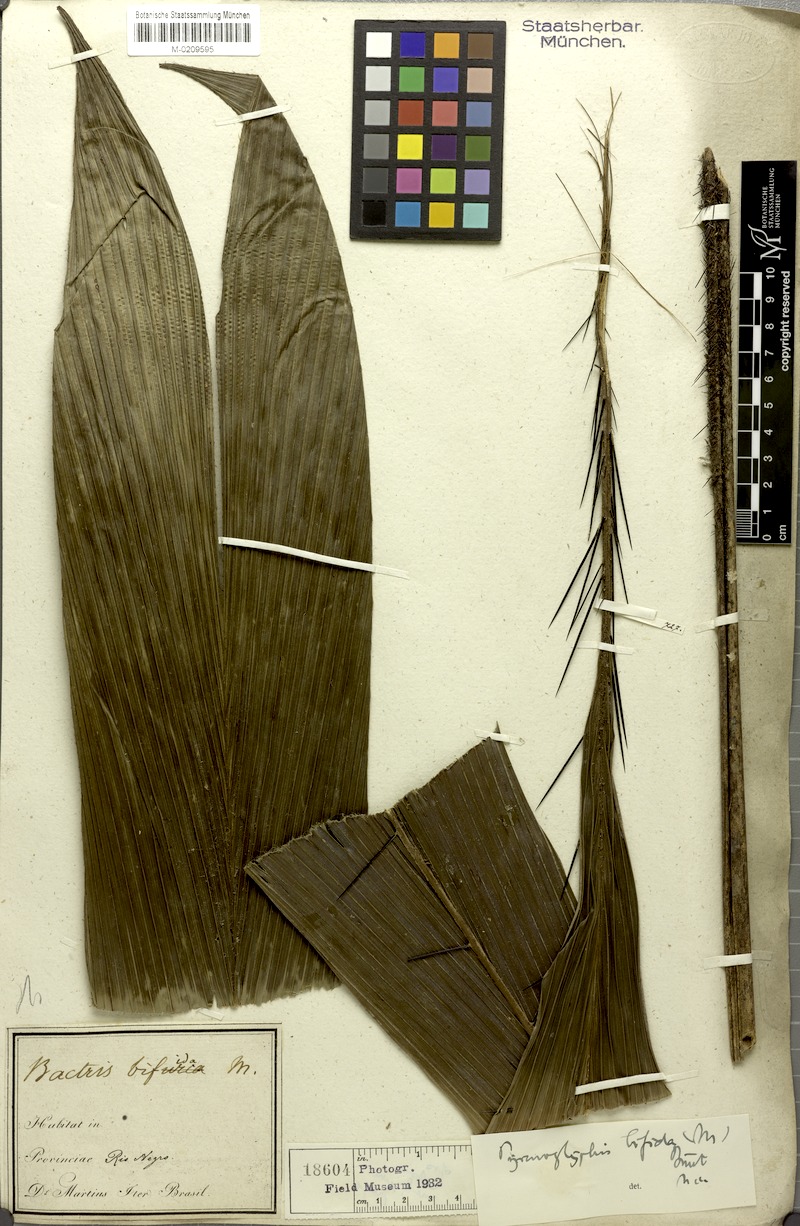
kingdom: Plantae
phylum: Tracheophyta
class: Liliopsida
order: Arecales
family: Arecaceae
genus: Bactris
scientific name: Bactris bifida
